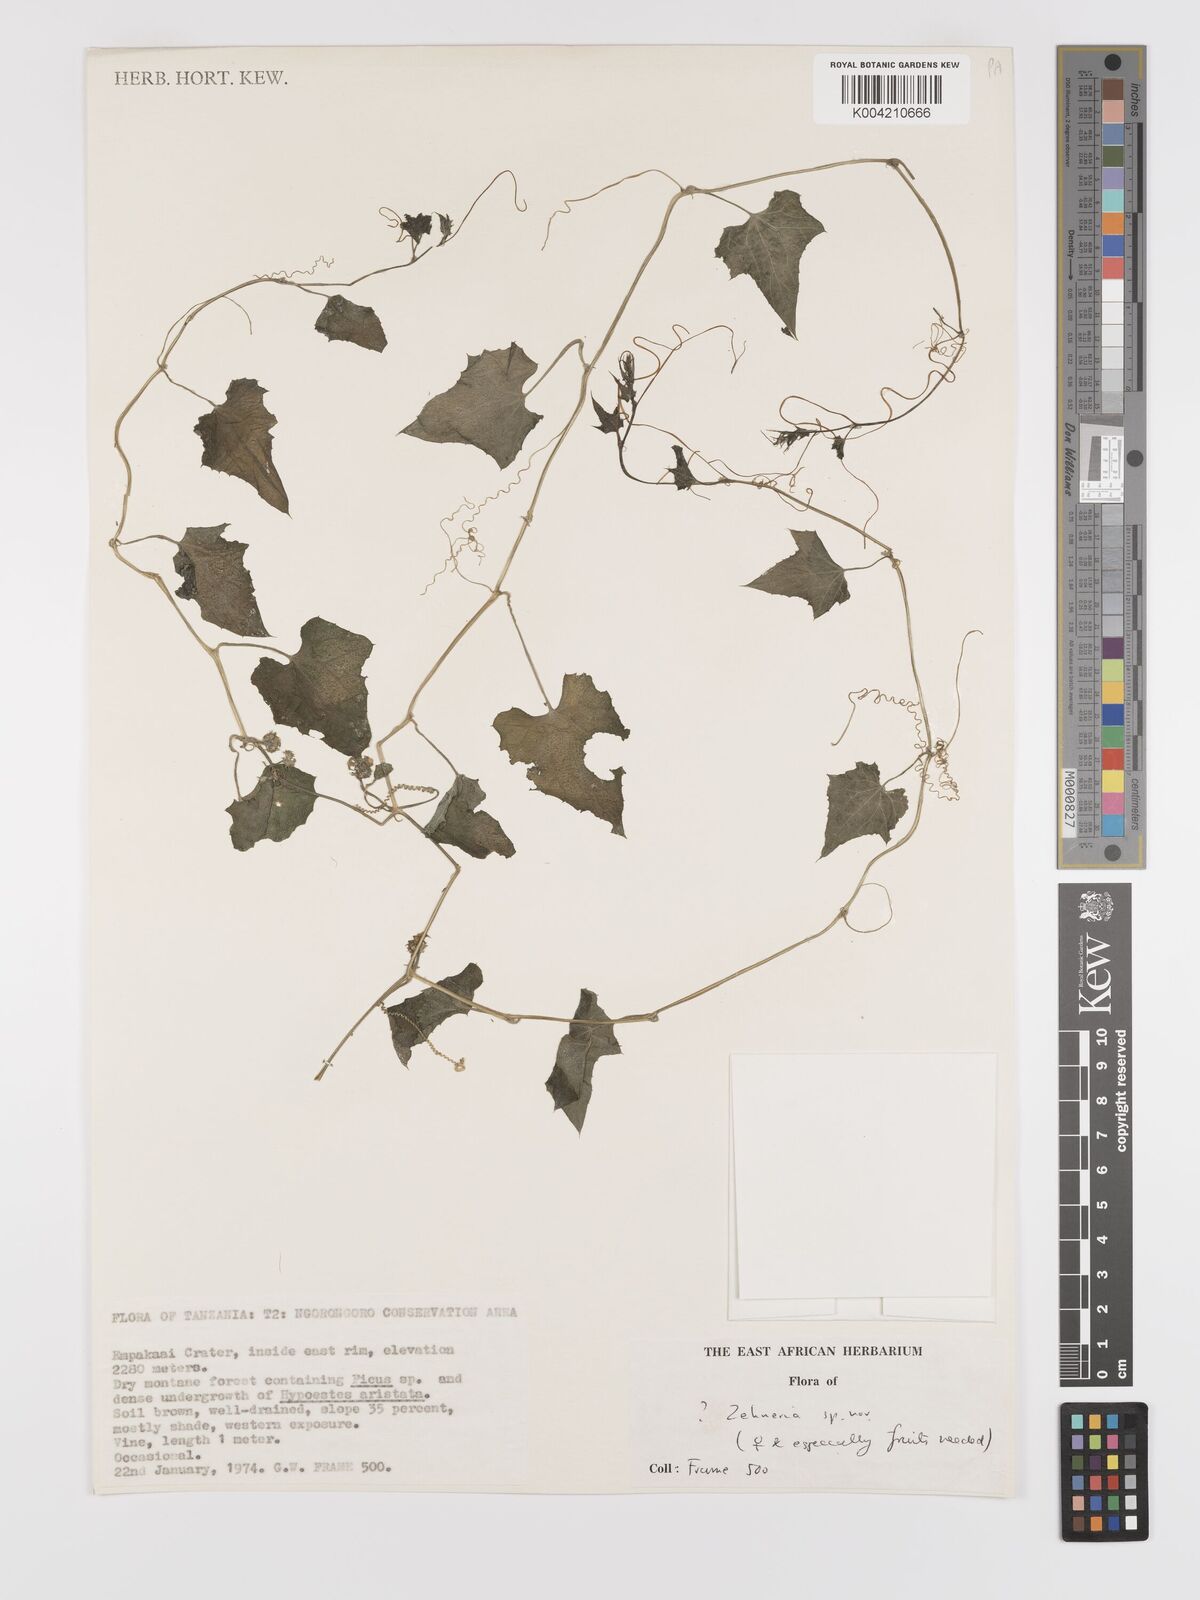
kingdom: Plantae
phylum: Tracheophyta
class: Magnoliopsida
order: Cucurbitales
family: Cucurbitaceae
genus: Zehneria
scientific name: Zehneria
